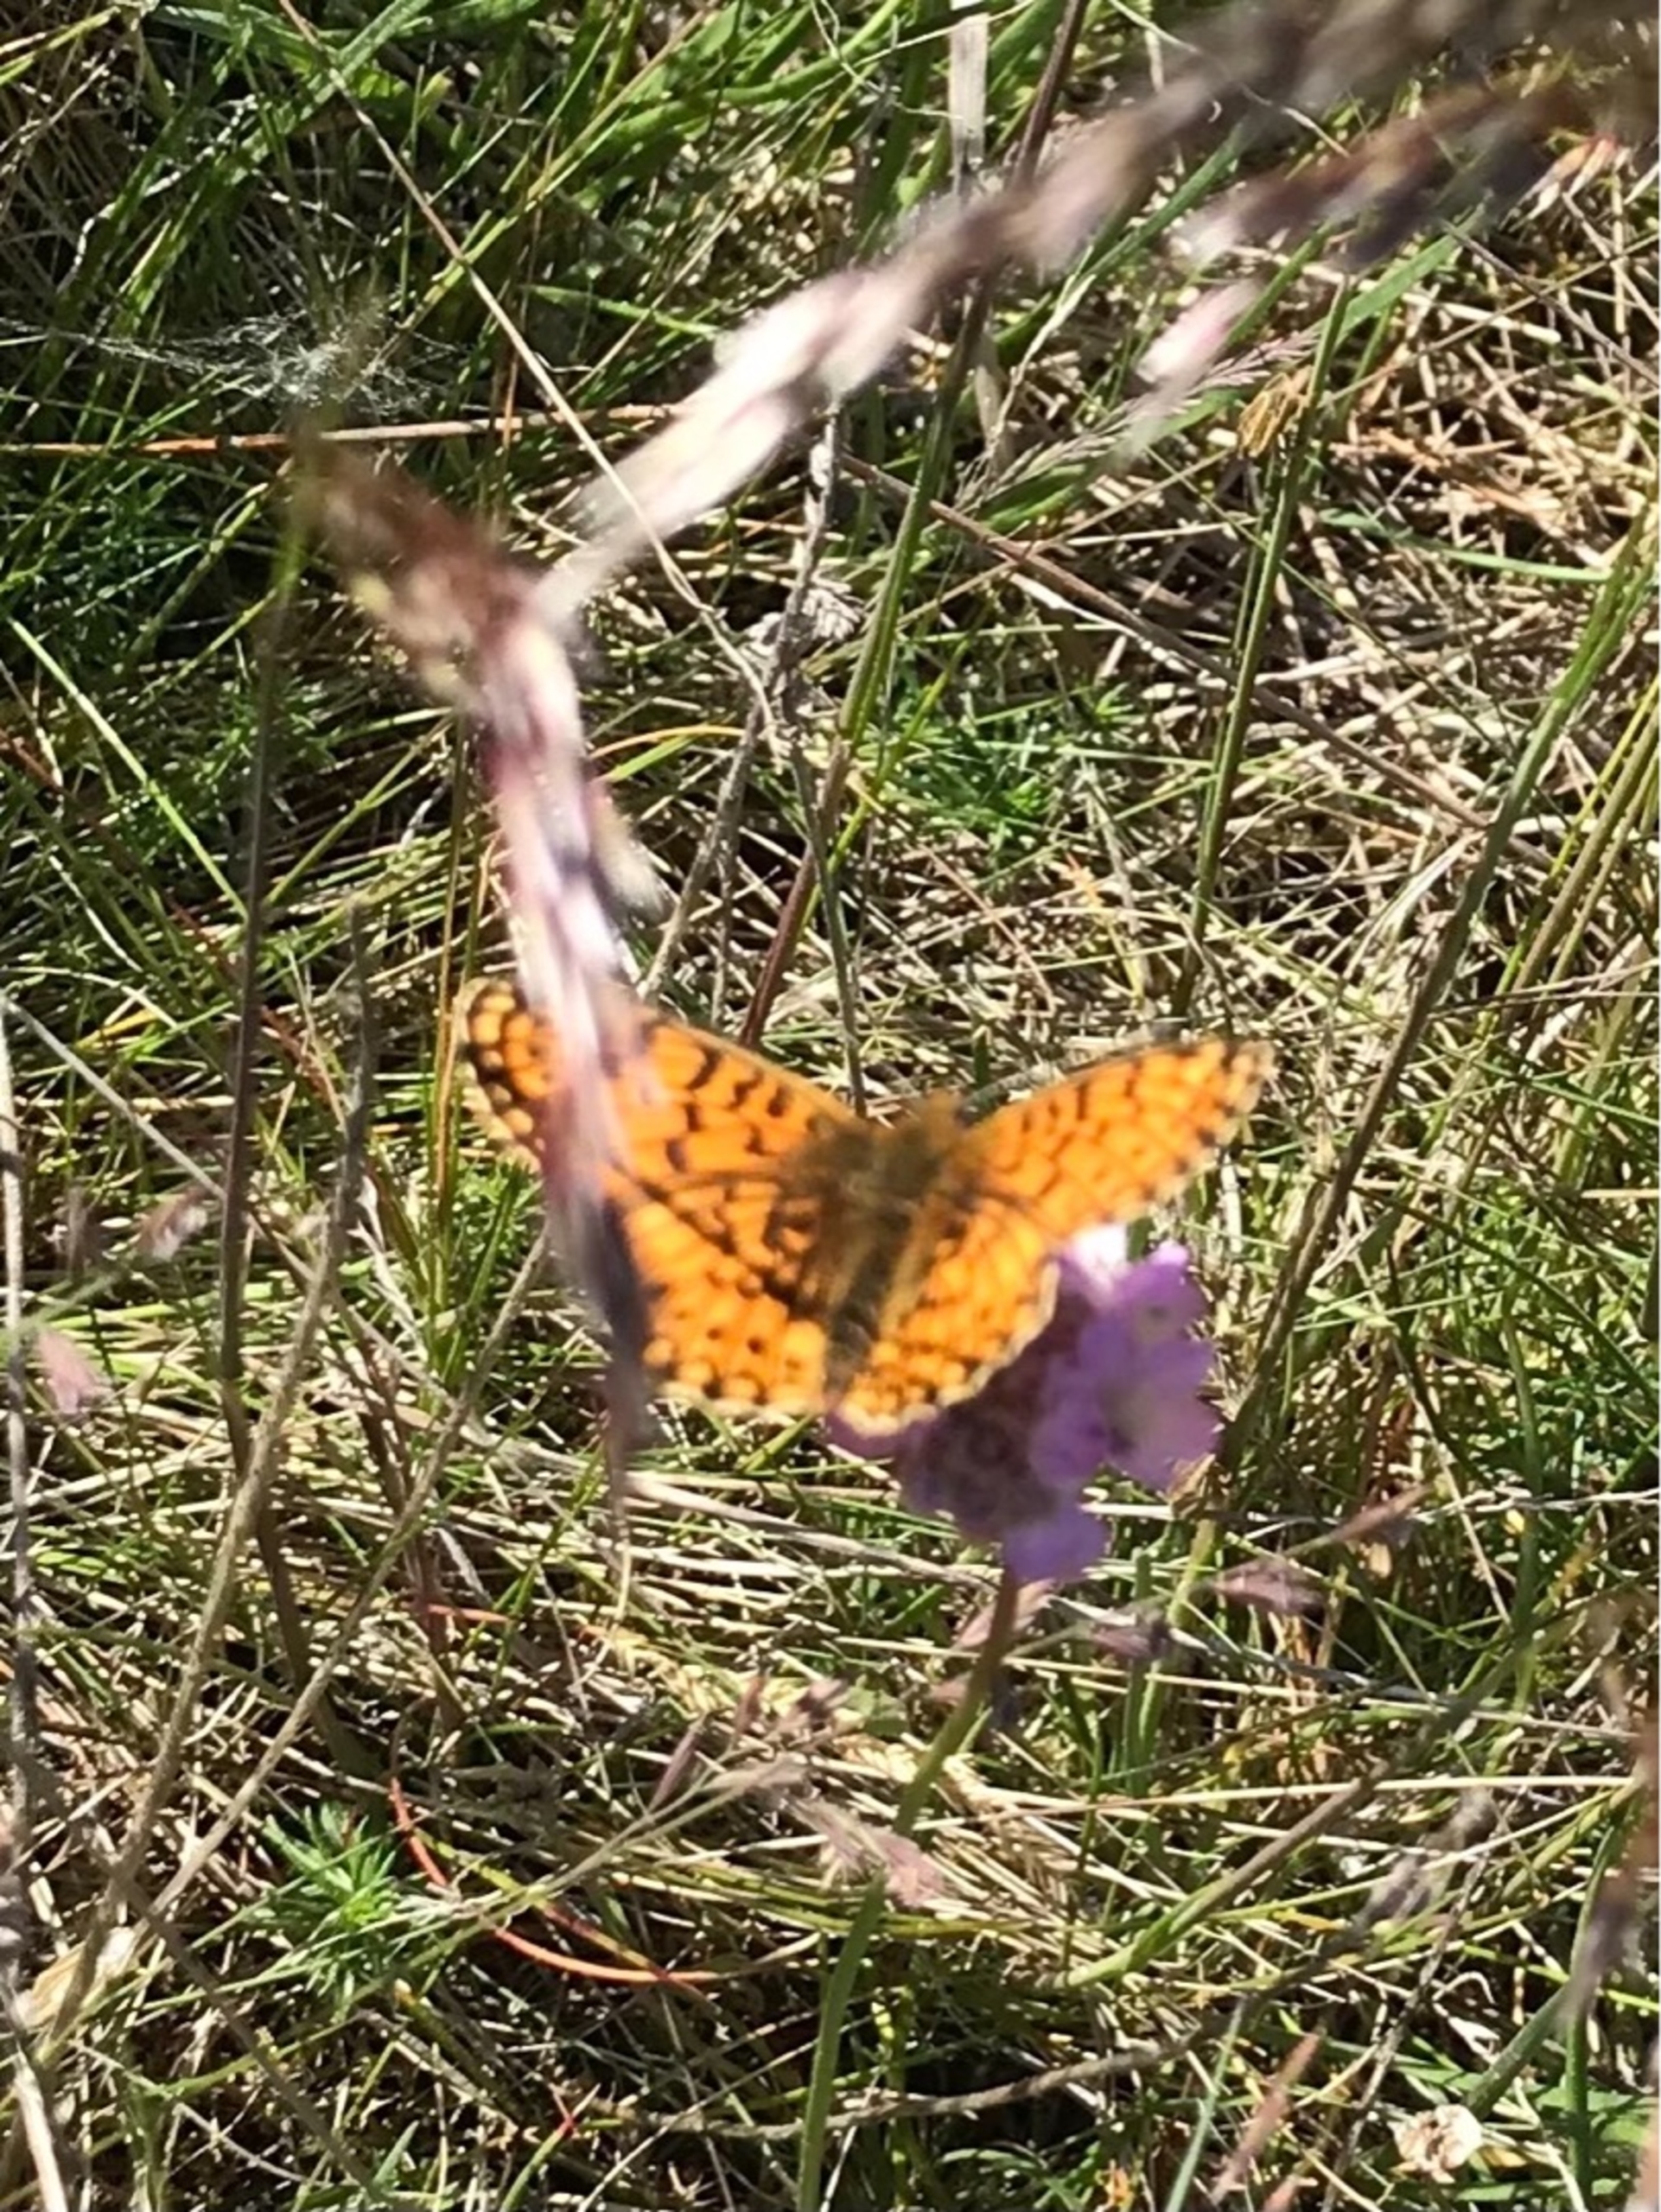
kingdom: Animalia
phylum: Arthropoda
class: Insecta
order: Lepidoptera
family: Nymphalidae
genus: Boloria
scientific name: Boloria selene
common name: Brunlig perlemorsommerfugl
